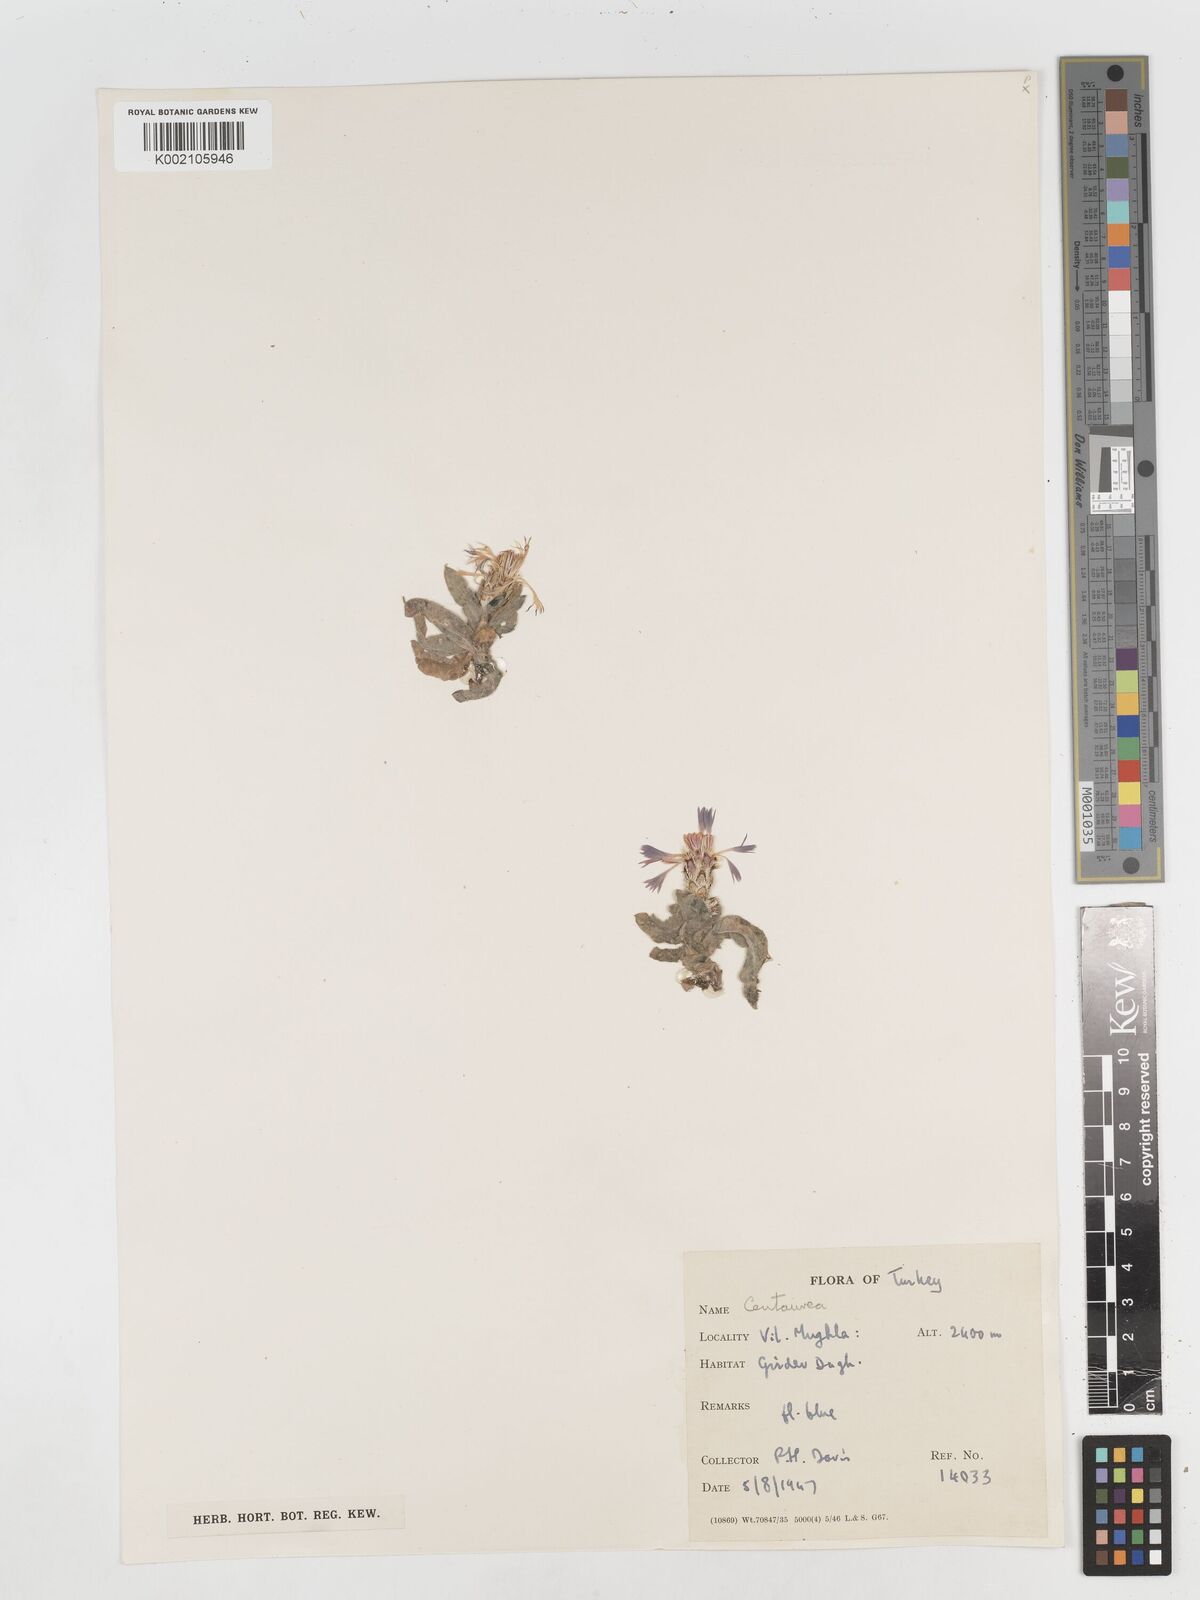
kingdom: Plantae
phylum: Tracheophyta
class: Magnoliopsida
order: Asterales
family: Asteraceae
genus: Centaurea
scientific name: Centaurea
